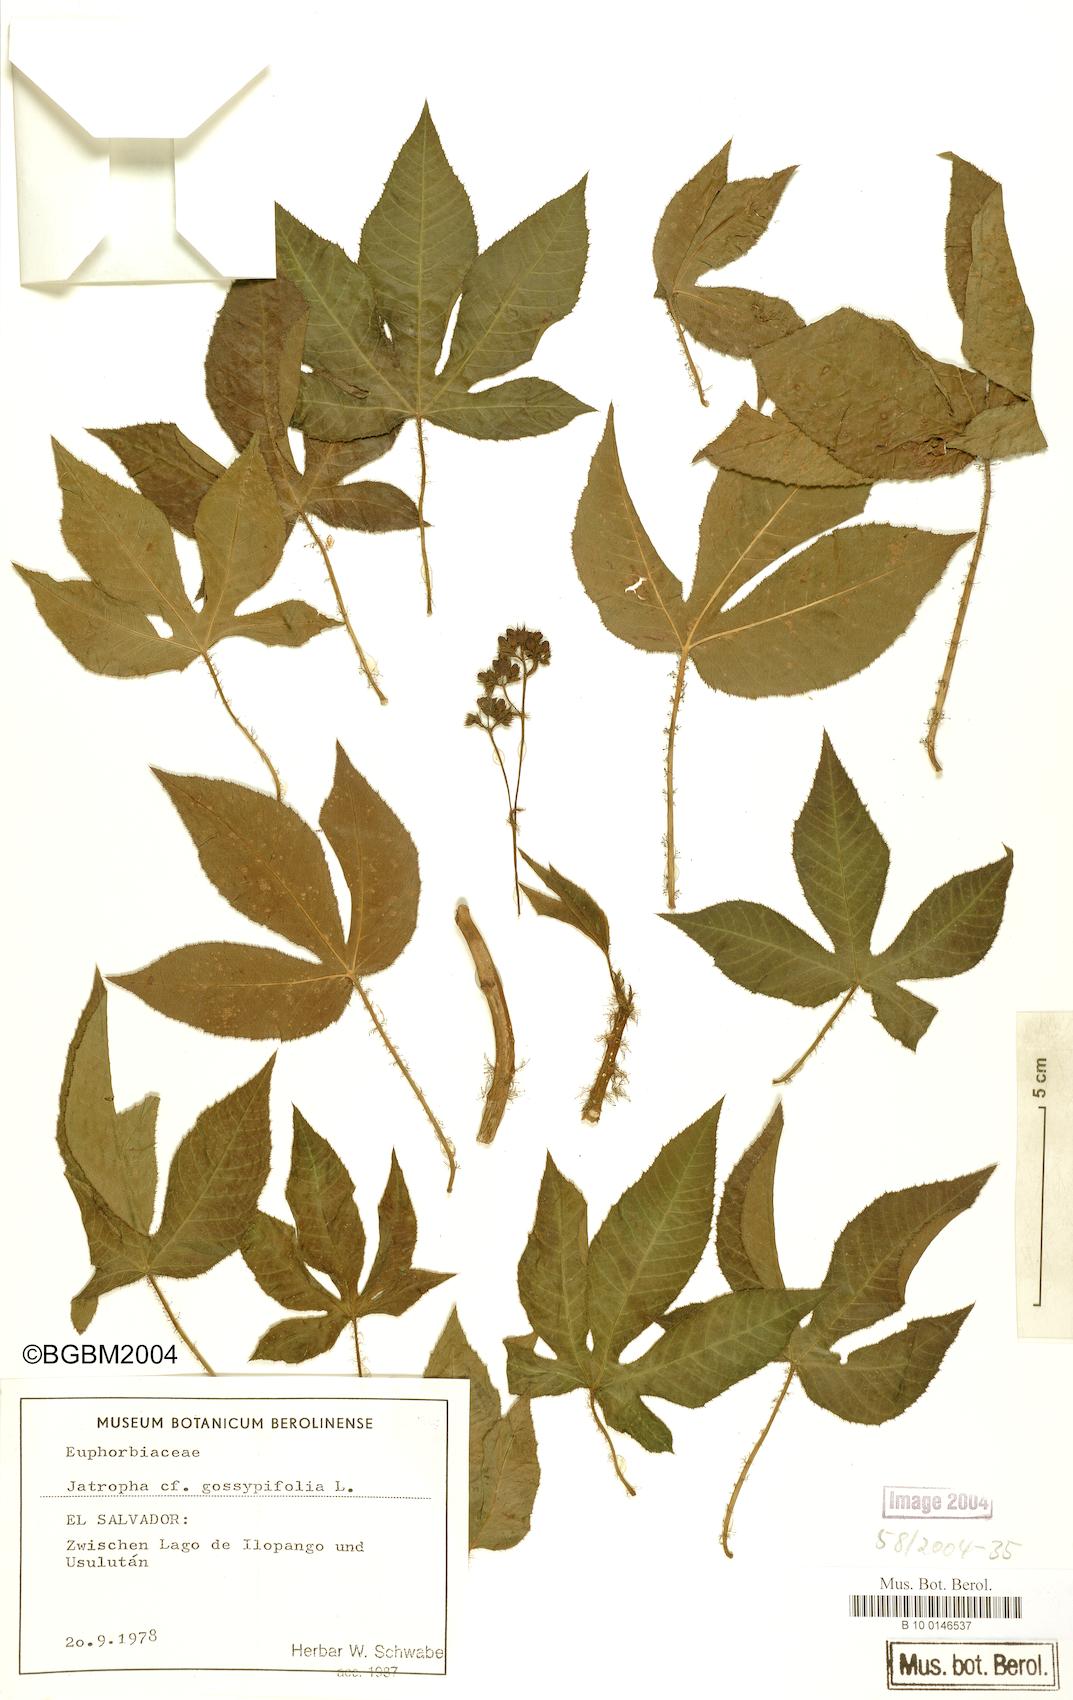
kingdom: Plantae
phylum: Tracheophyta
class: Magnoliopsida
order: Malpighiales
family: Euphorbiaceae
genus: Jatropha
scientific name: Jatropha gossypiifolia
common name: Bellyache bush
